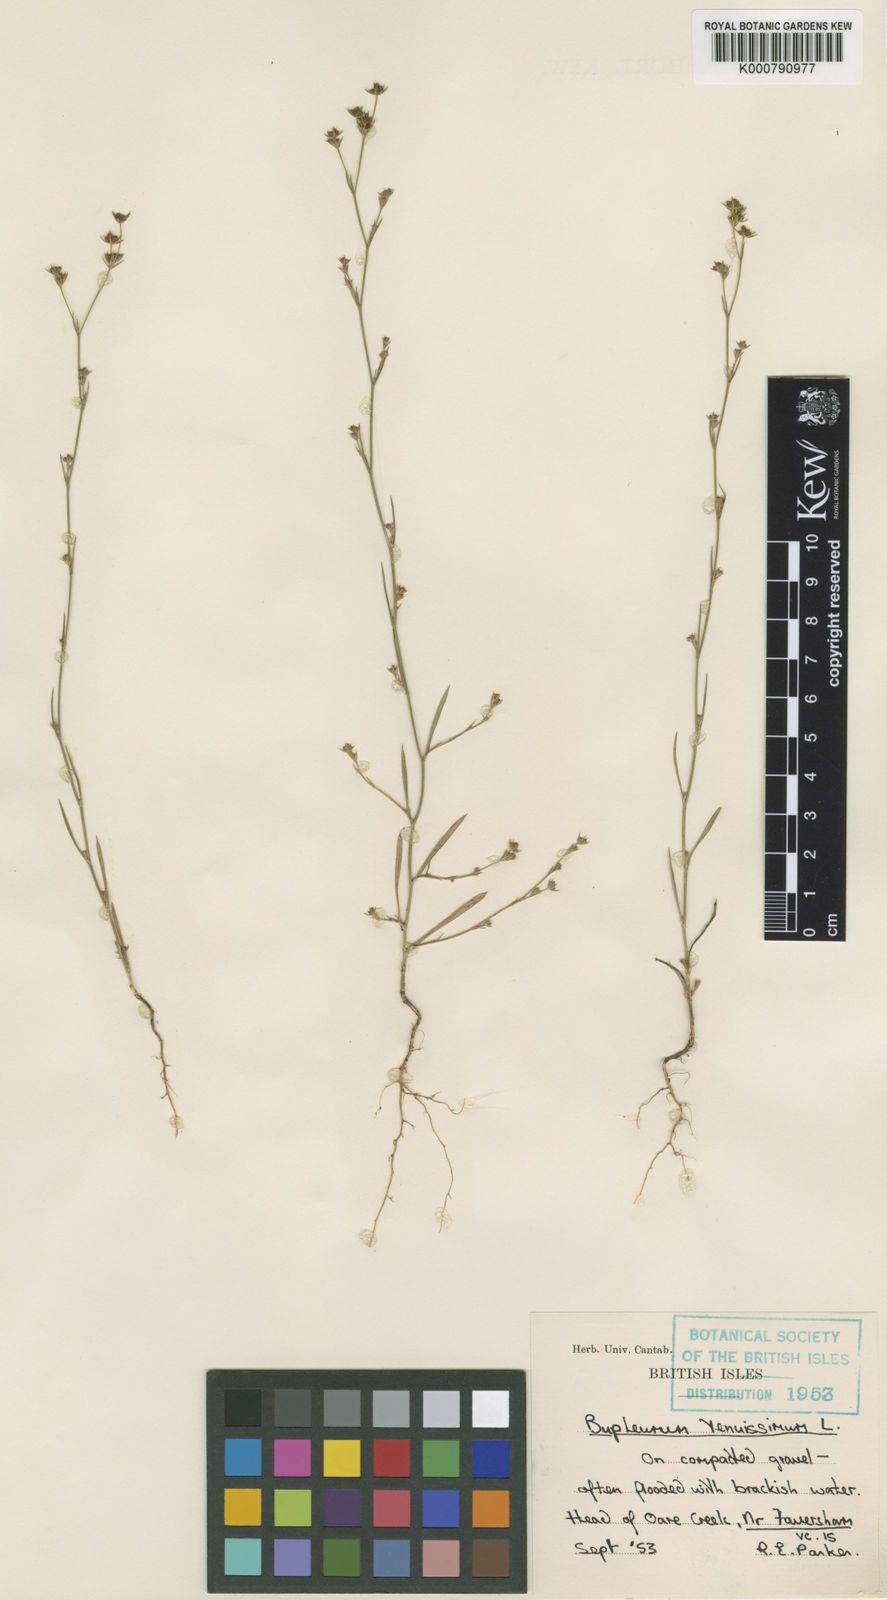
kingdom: Plantae
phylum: Tracheophyta
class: Magnoliopsida
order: Apiales
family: Apiaceae
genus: Bupleurum
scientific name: Bupleurum tenuissimum
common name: Slender hare's-ear
